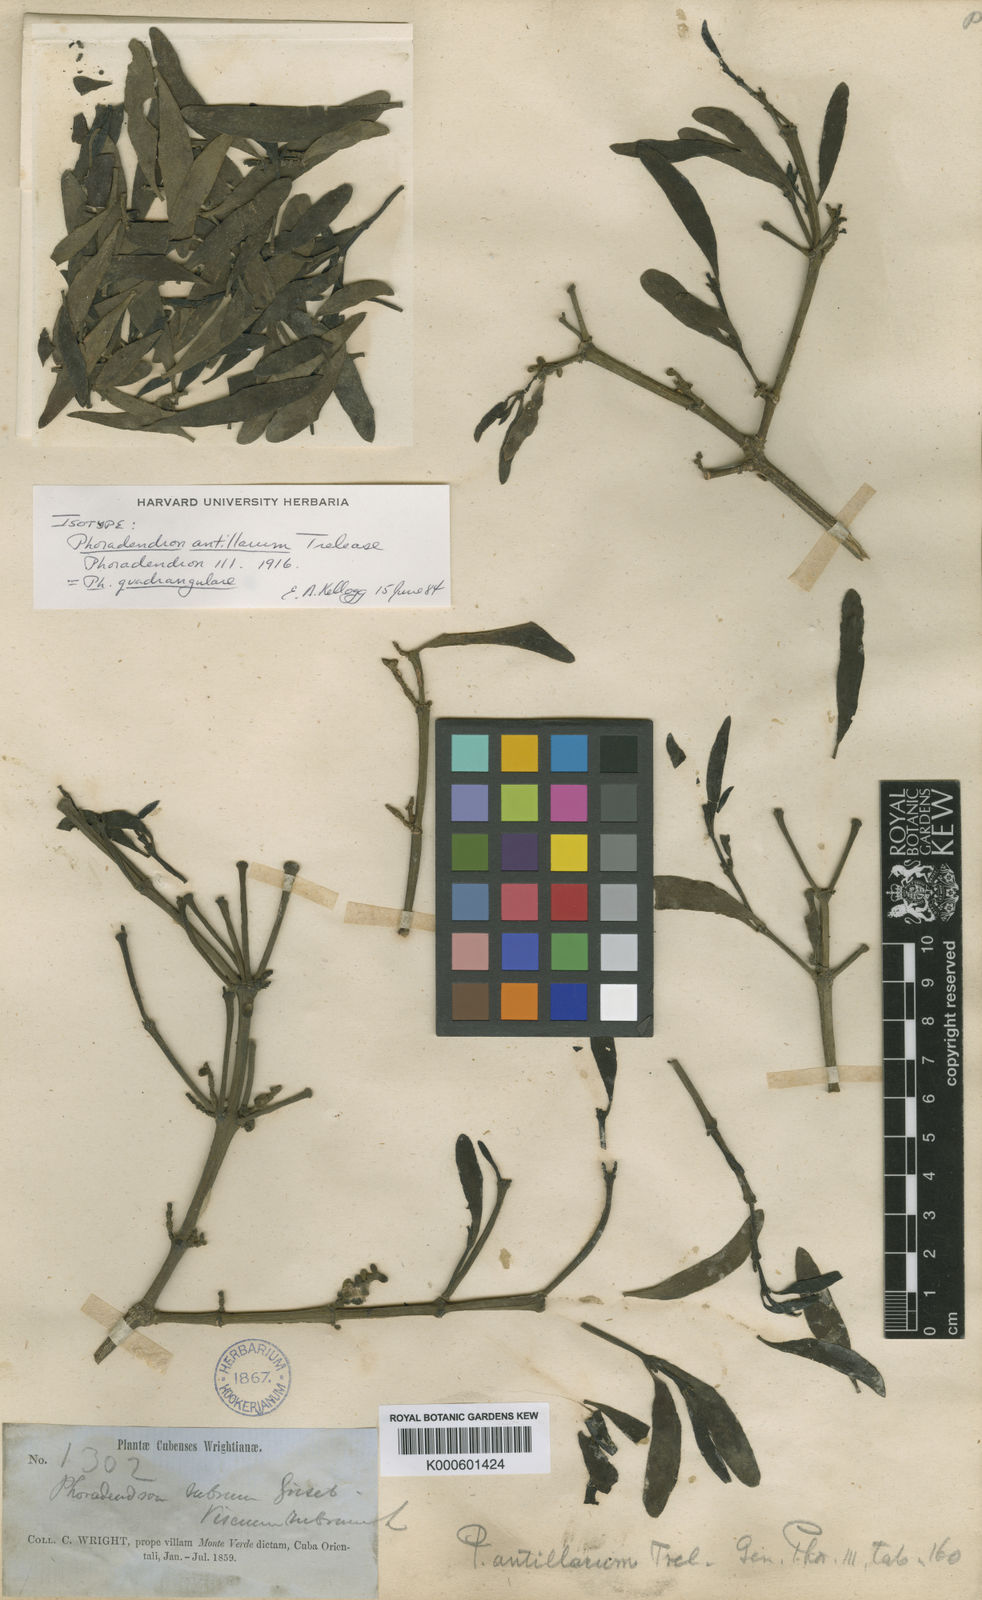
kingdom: Plantae
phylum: Tracheophyta
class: Magnoliopsida
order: Santalales
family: Viscaceae
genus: Phoradendron
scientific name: Phoradendron quadrangulare
